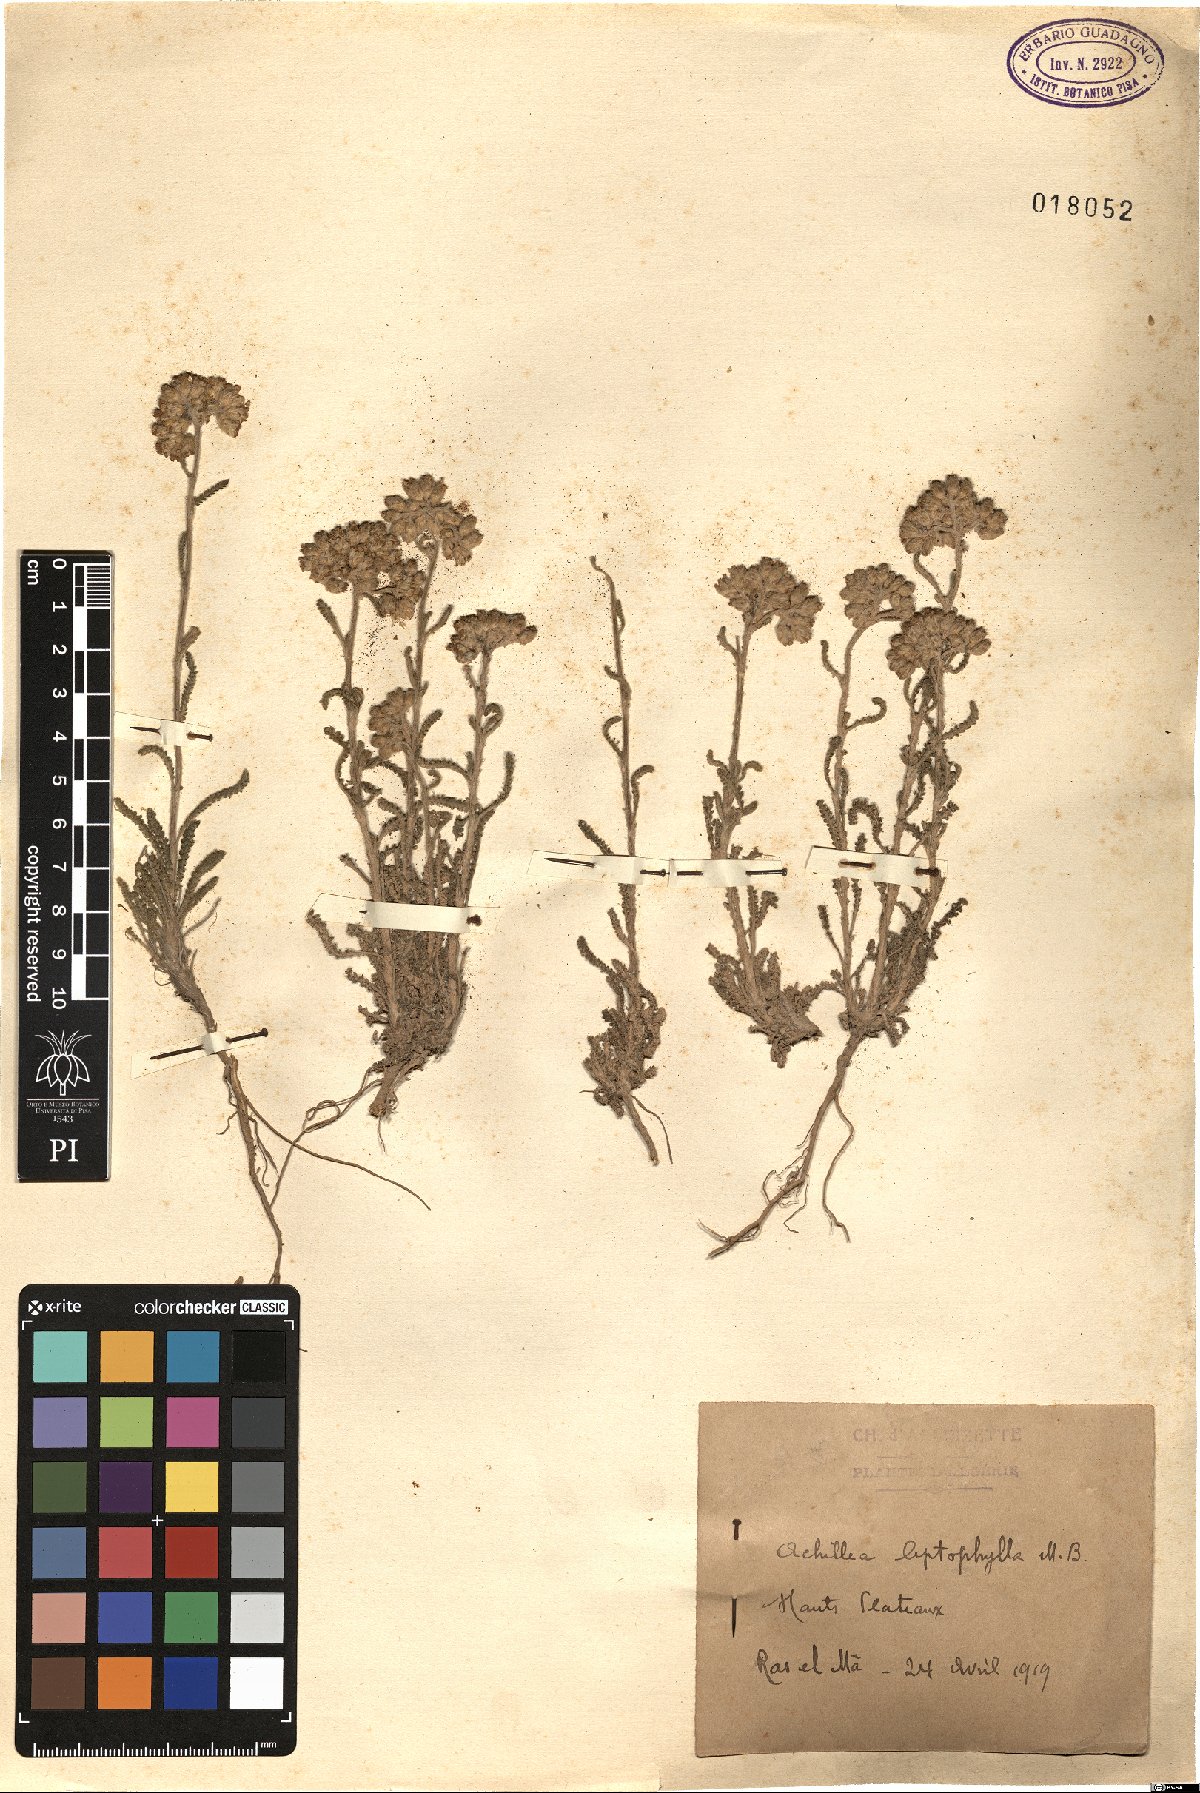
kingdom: Plantae
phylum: Tracheophyta
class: Magnoliopsida
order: Asterales
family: Asteraceae
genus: Achillea
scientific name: Achillea leptophylla
